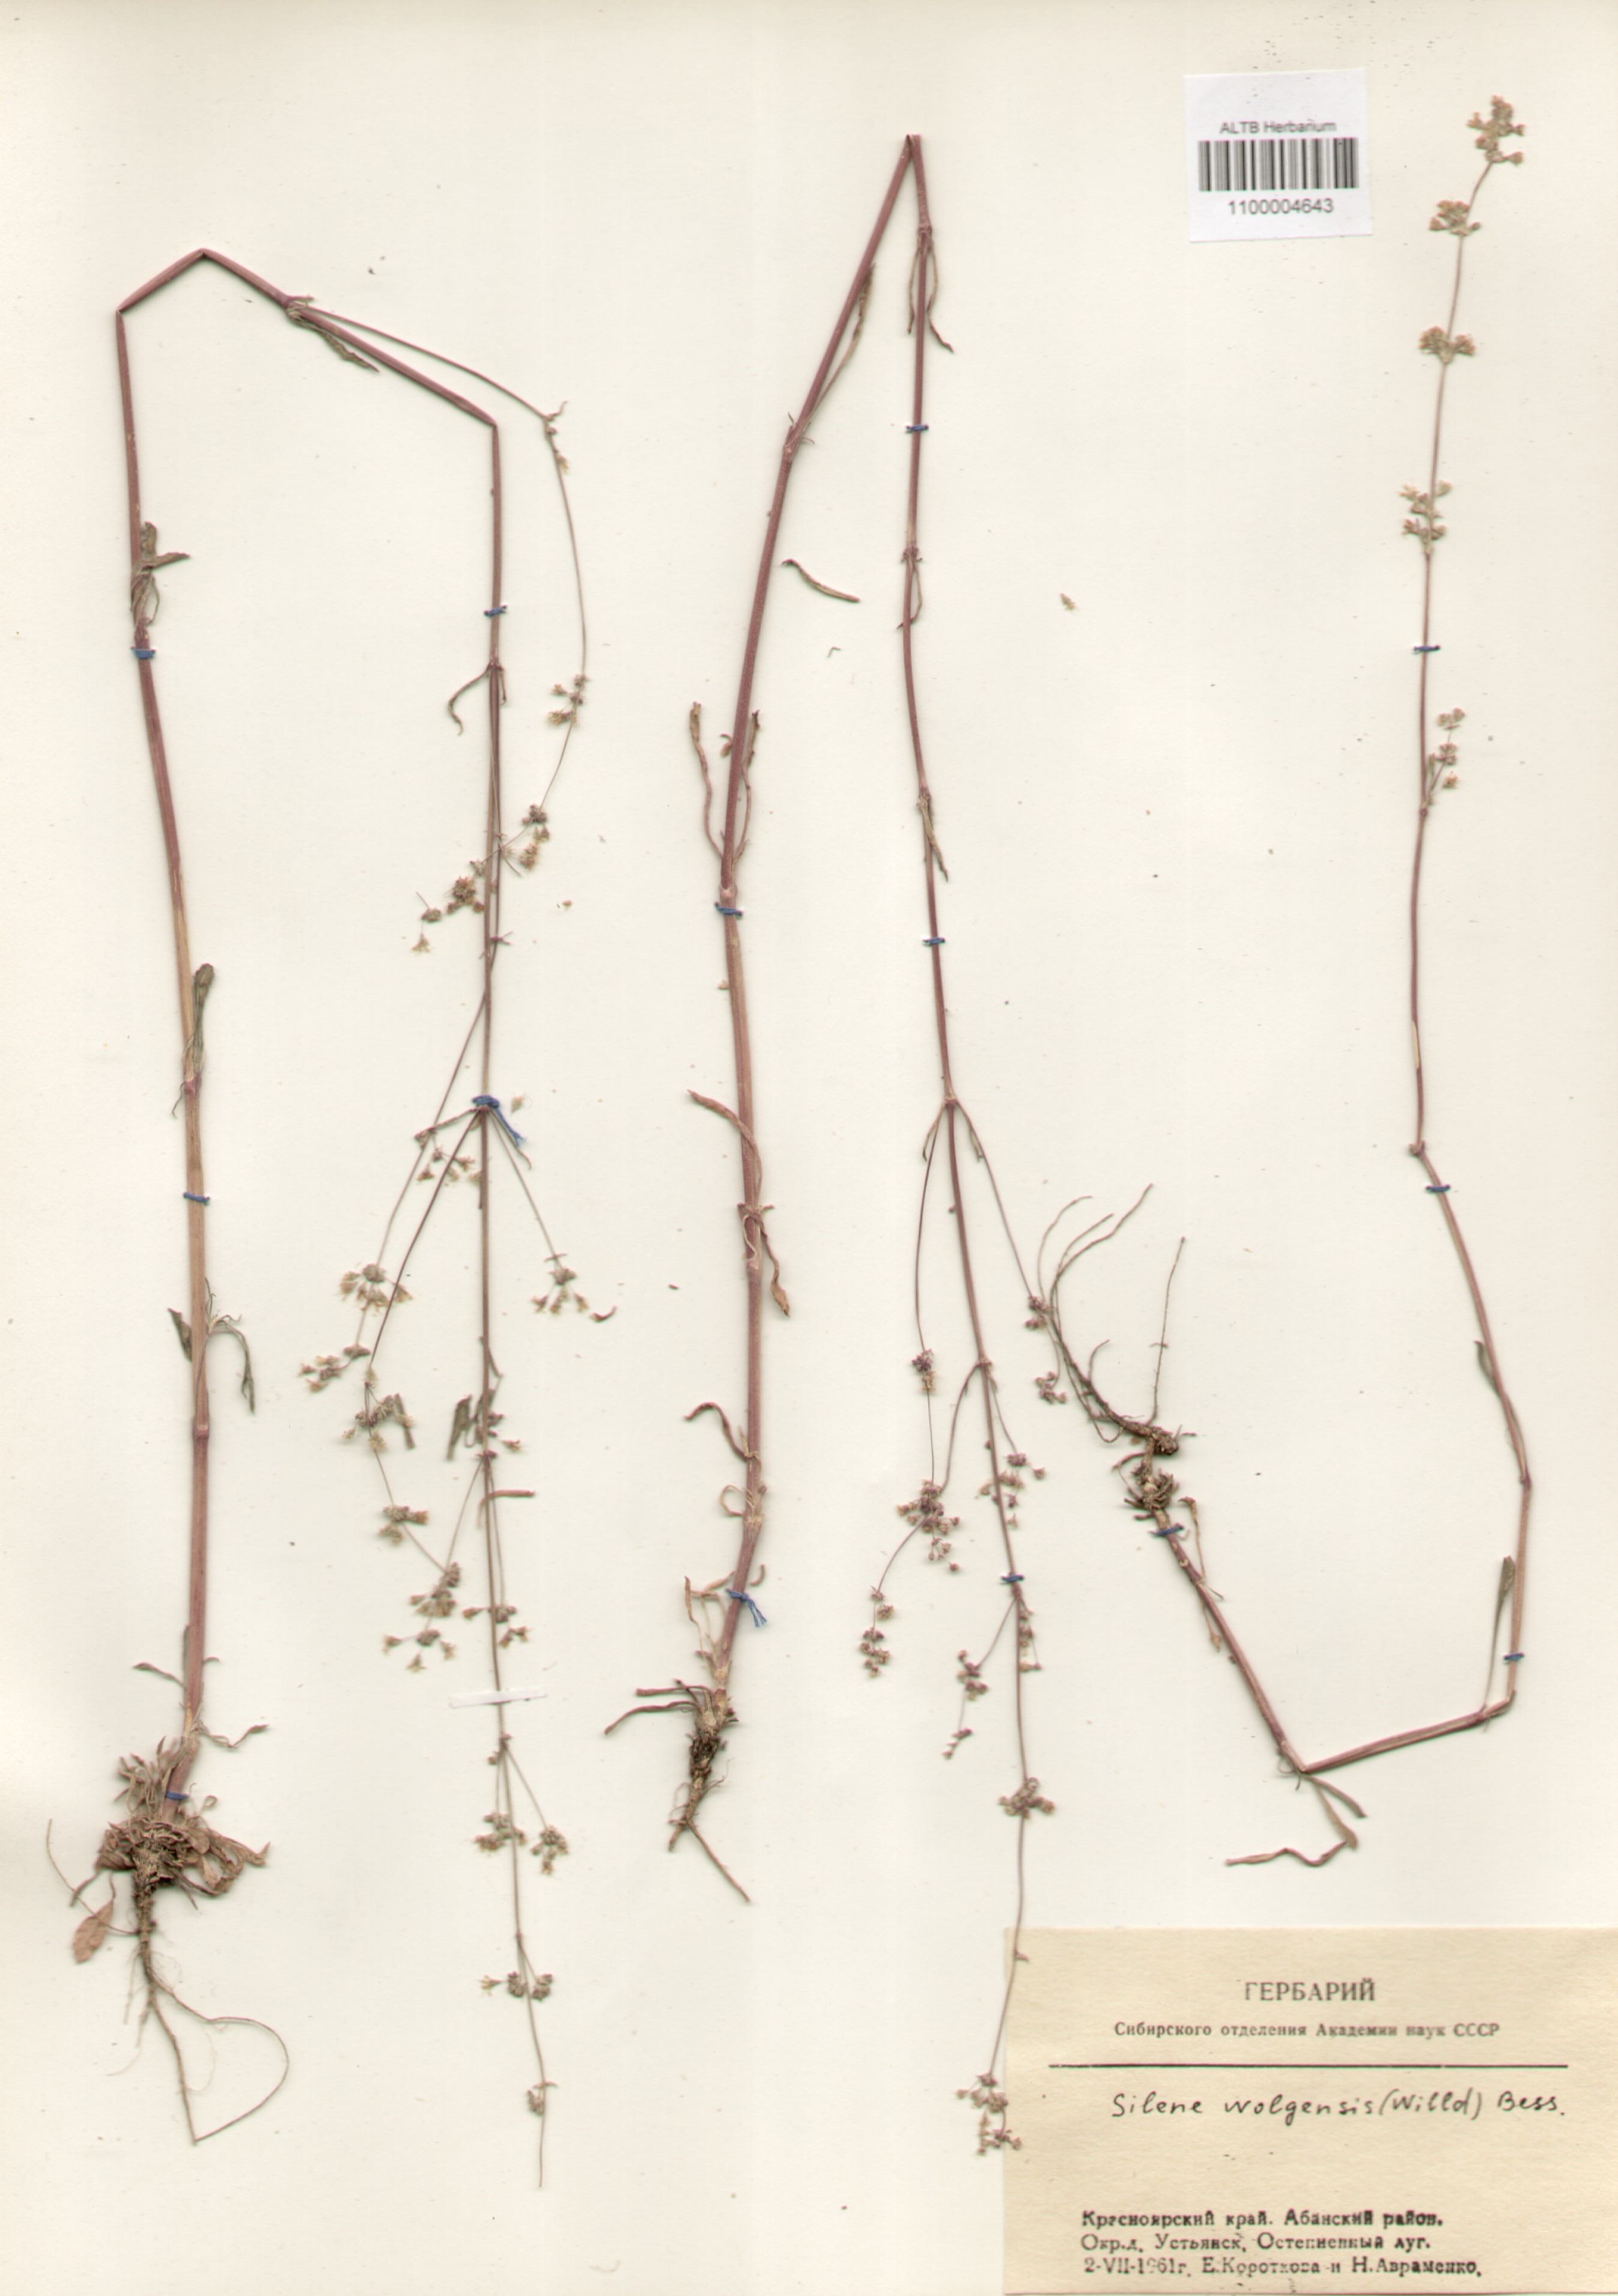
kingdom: Plantae
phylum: Tracheophyta
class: Magnoliopsida
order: Caryophyllales
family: Caryophyllaceae
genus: Silene
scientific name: Silene wolgensis
